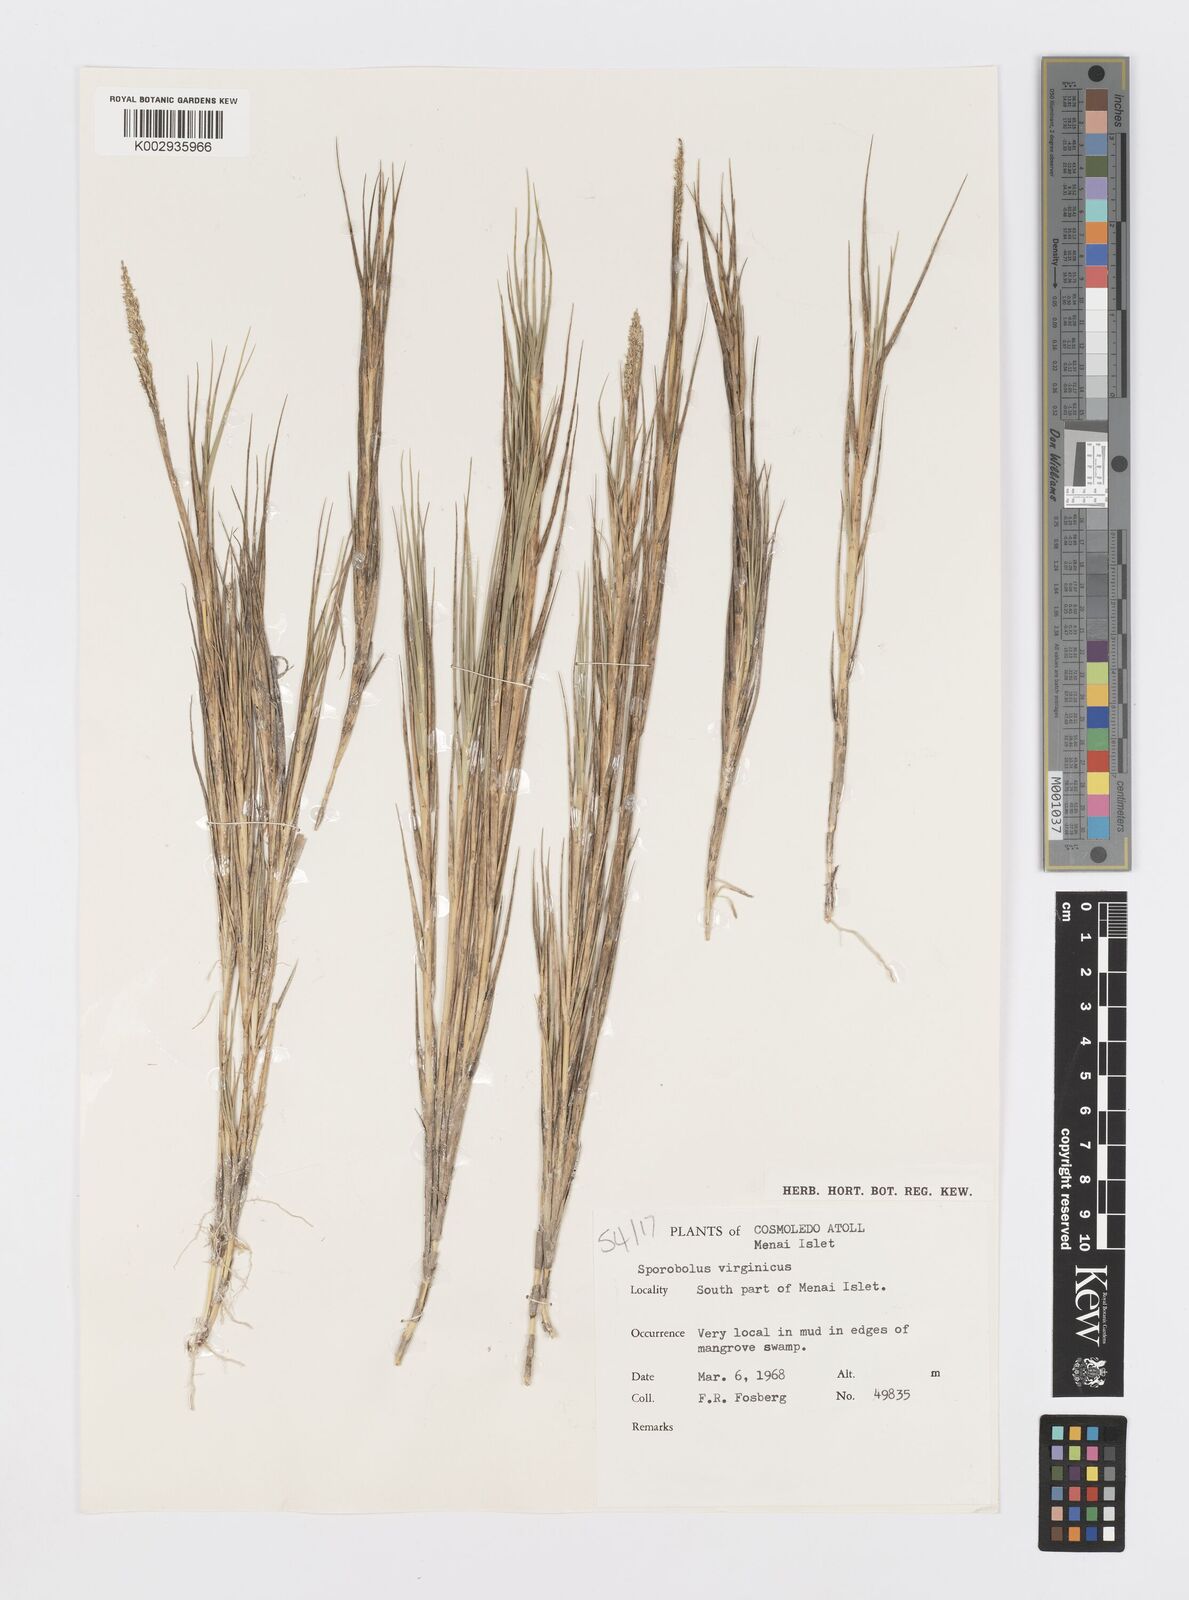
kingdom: Plantae
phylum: Tracheophyta
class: Liliopsida
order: Poales
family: Poaceae
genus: Sporobolus
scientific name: Sporobolus virginicus
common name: Beach dropseed
